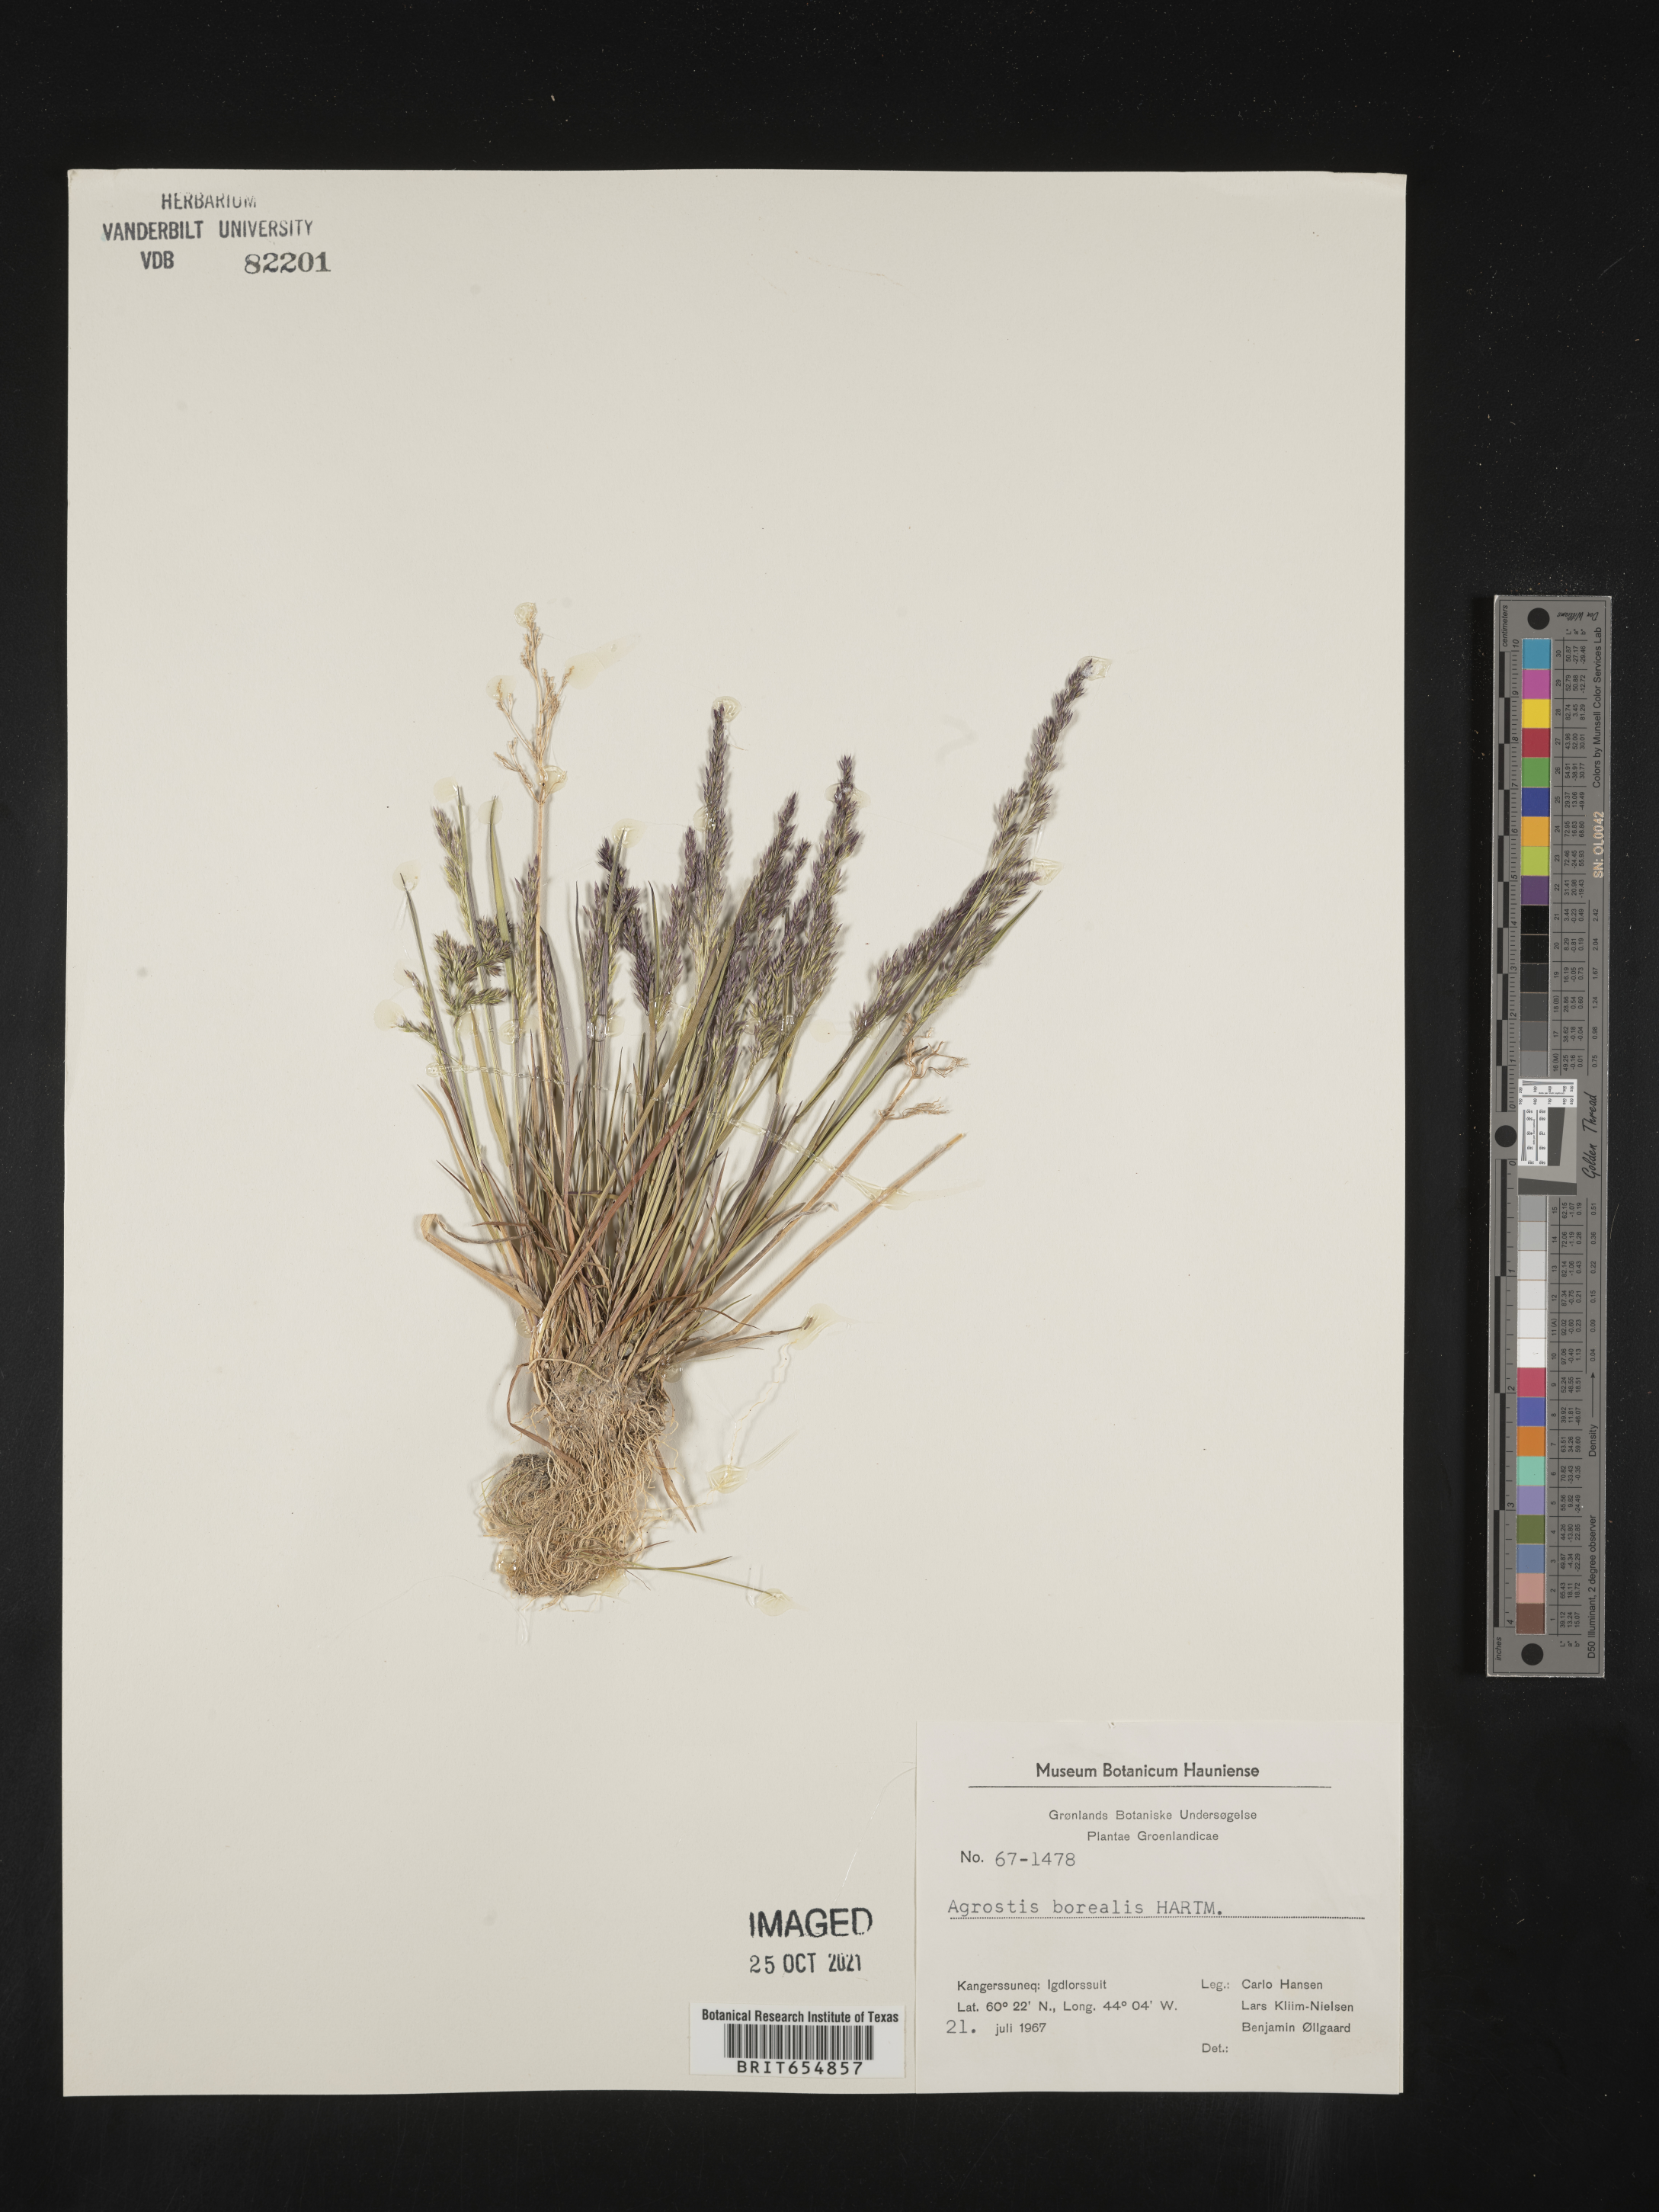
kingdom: Plantae
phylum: Tracheophyta
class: Liliopsida
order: Poales
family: Poaceae
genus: Agrostis
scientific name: Agrostis
